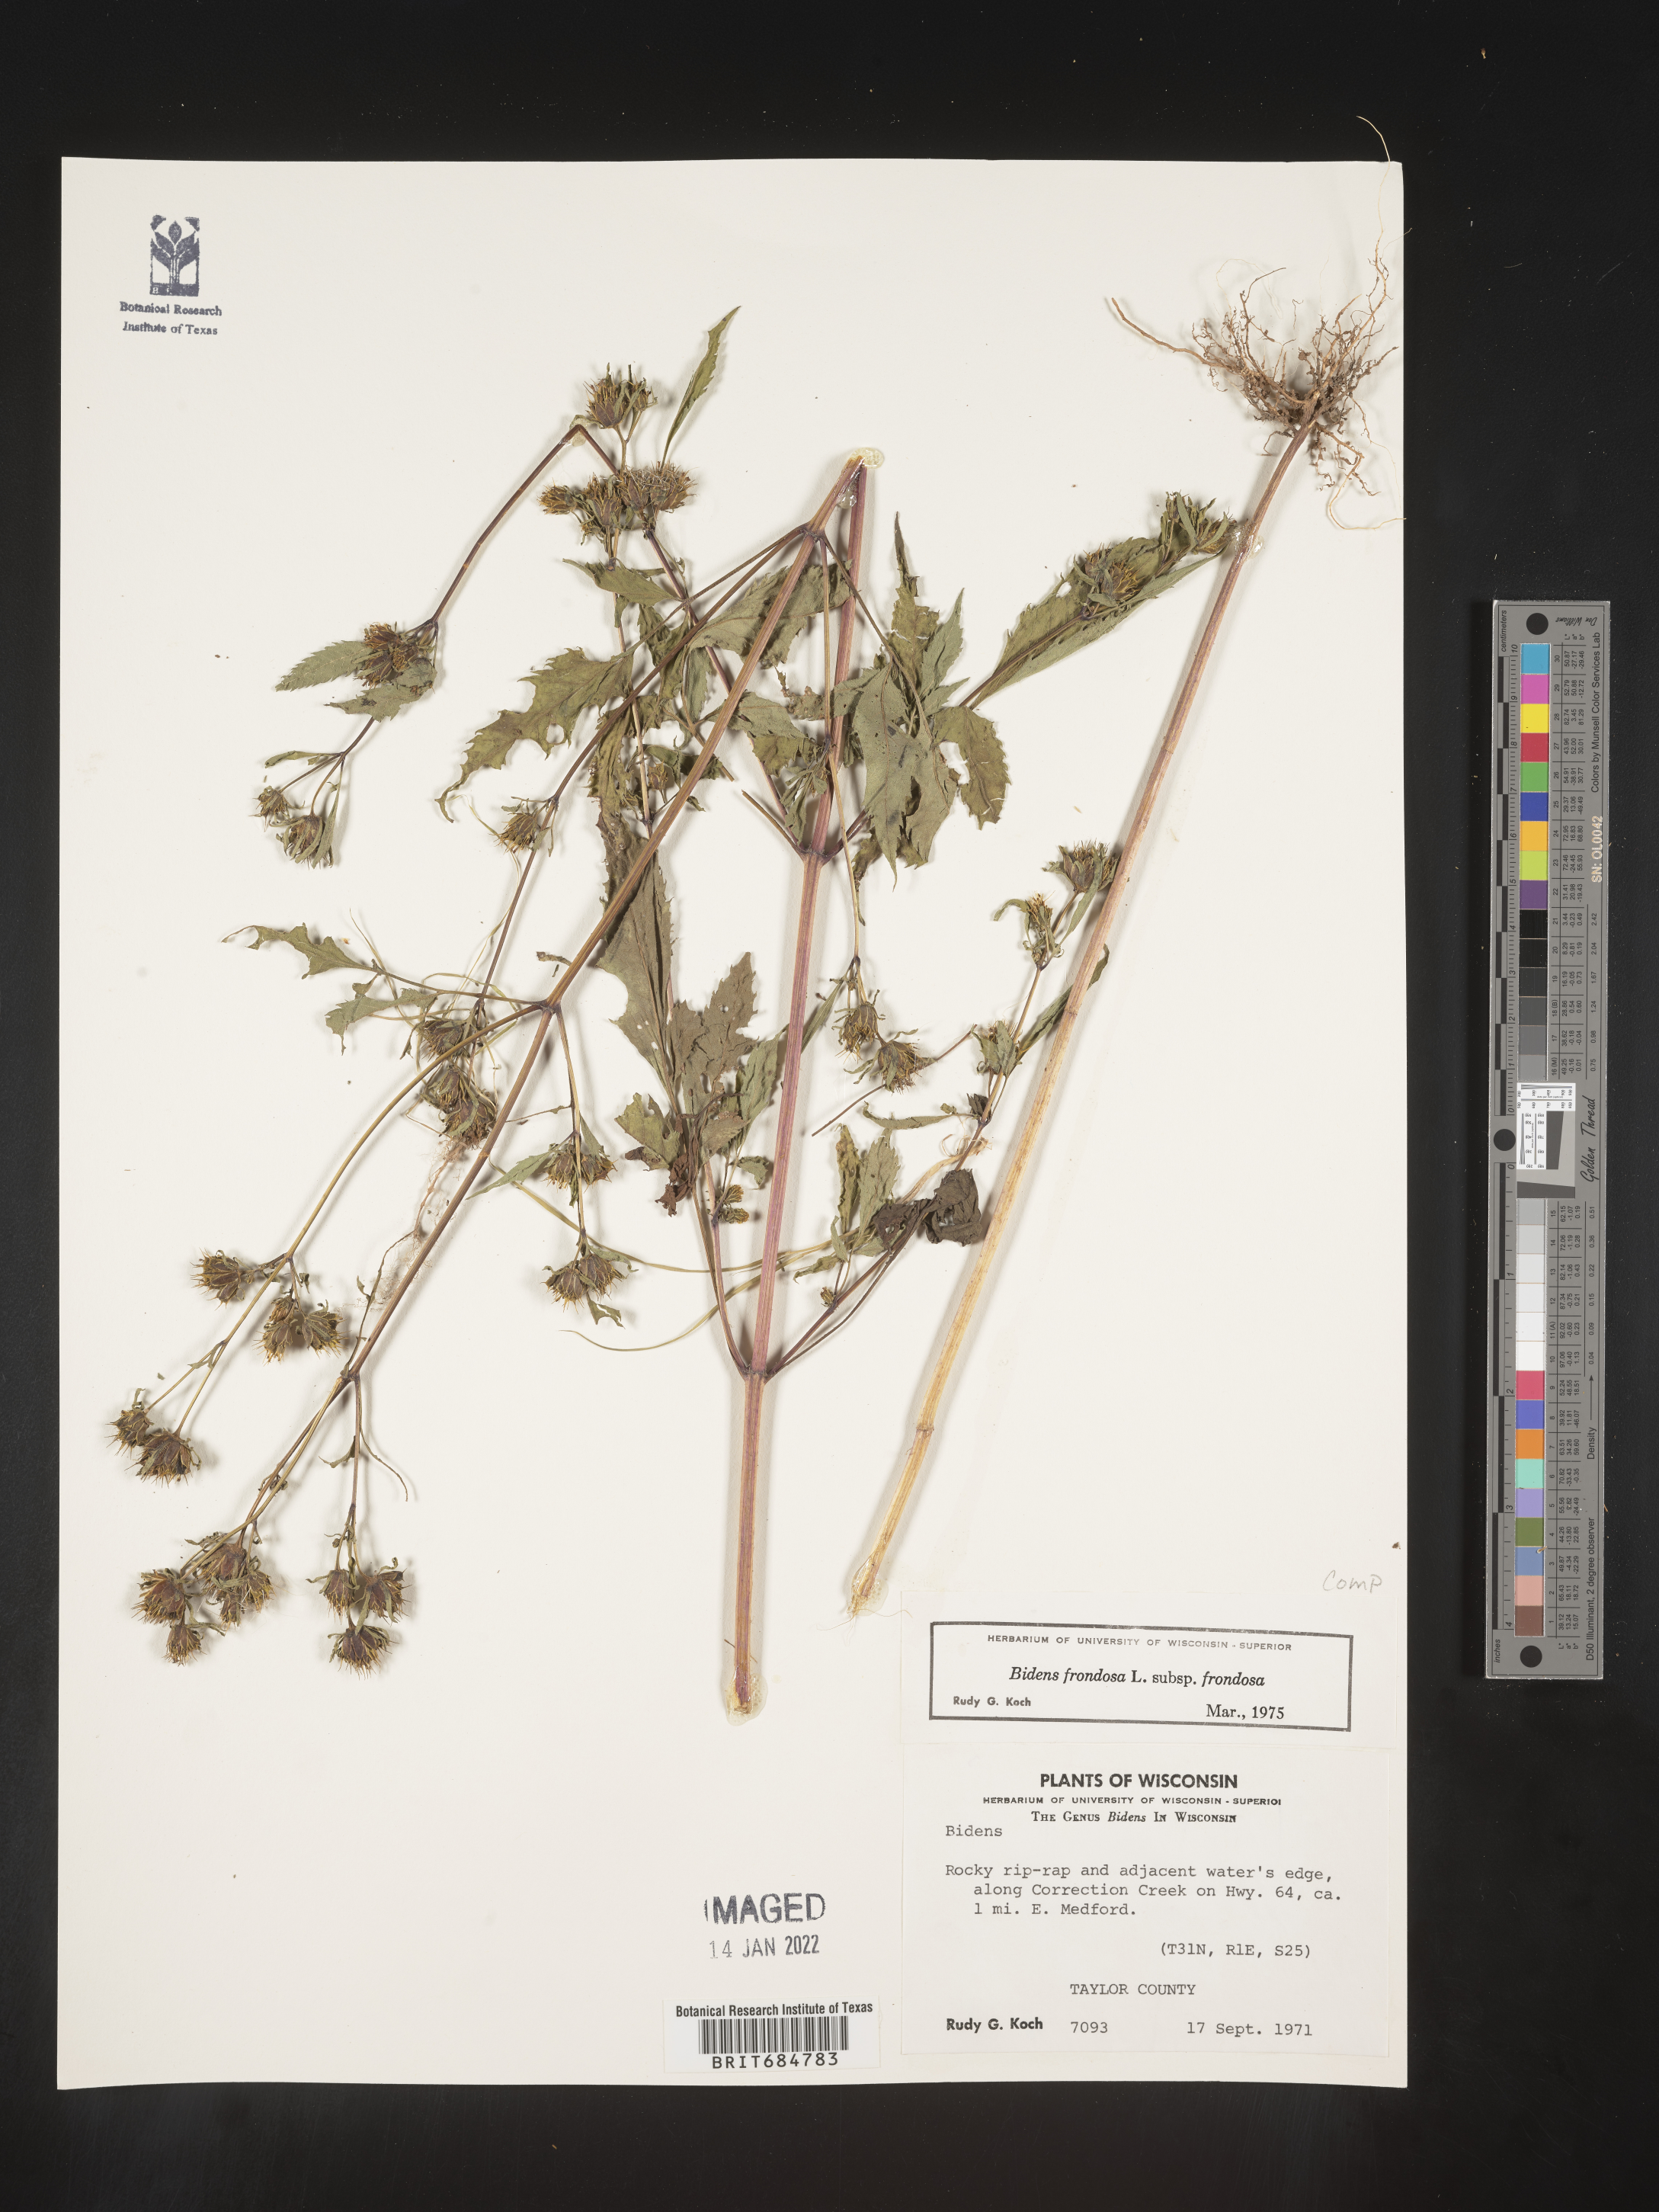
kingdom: Plantae
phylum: Tracheophyta
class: Magnoliopsida
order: Asterales
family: Asteraceae
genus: Bidens
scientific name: Bidens frondosa
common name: Beggarticks
